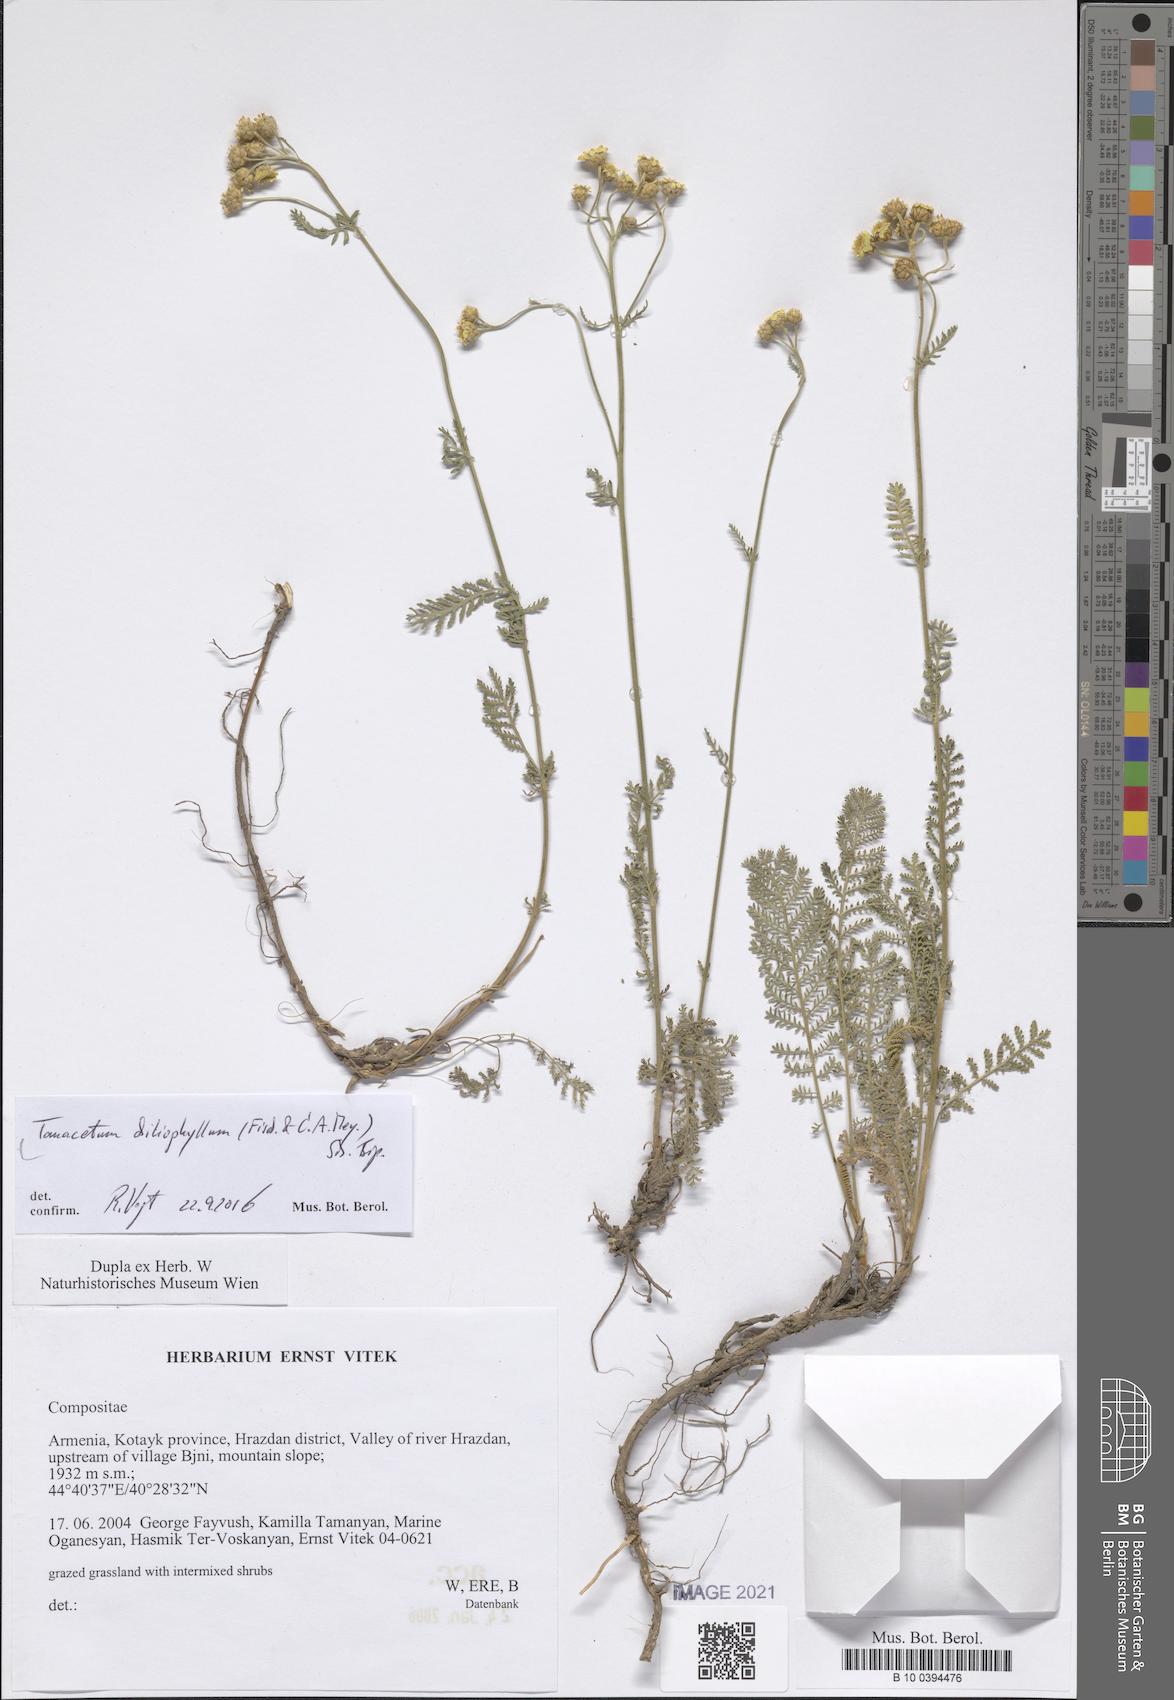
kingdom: Plantae
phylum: Tracheophyta
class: Magnoliopsida
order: Asterales
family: Asteraceae
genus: Tanacetum
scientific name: Tanacetum aureum
